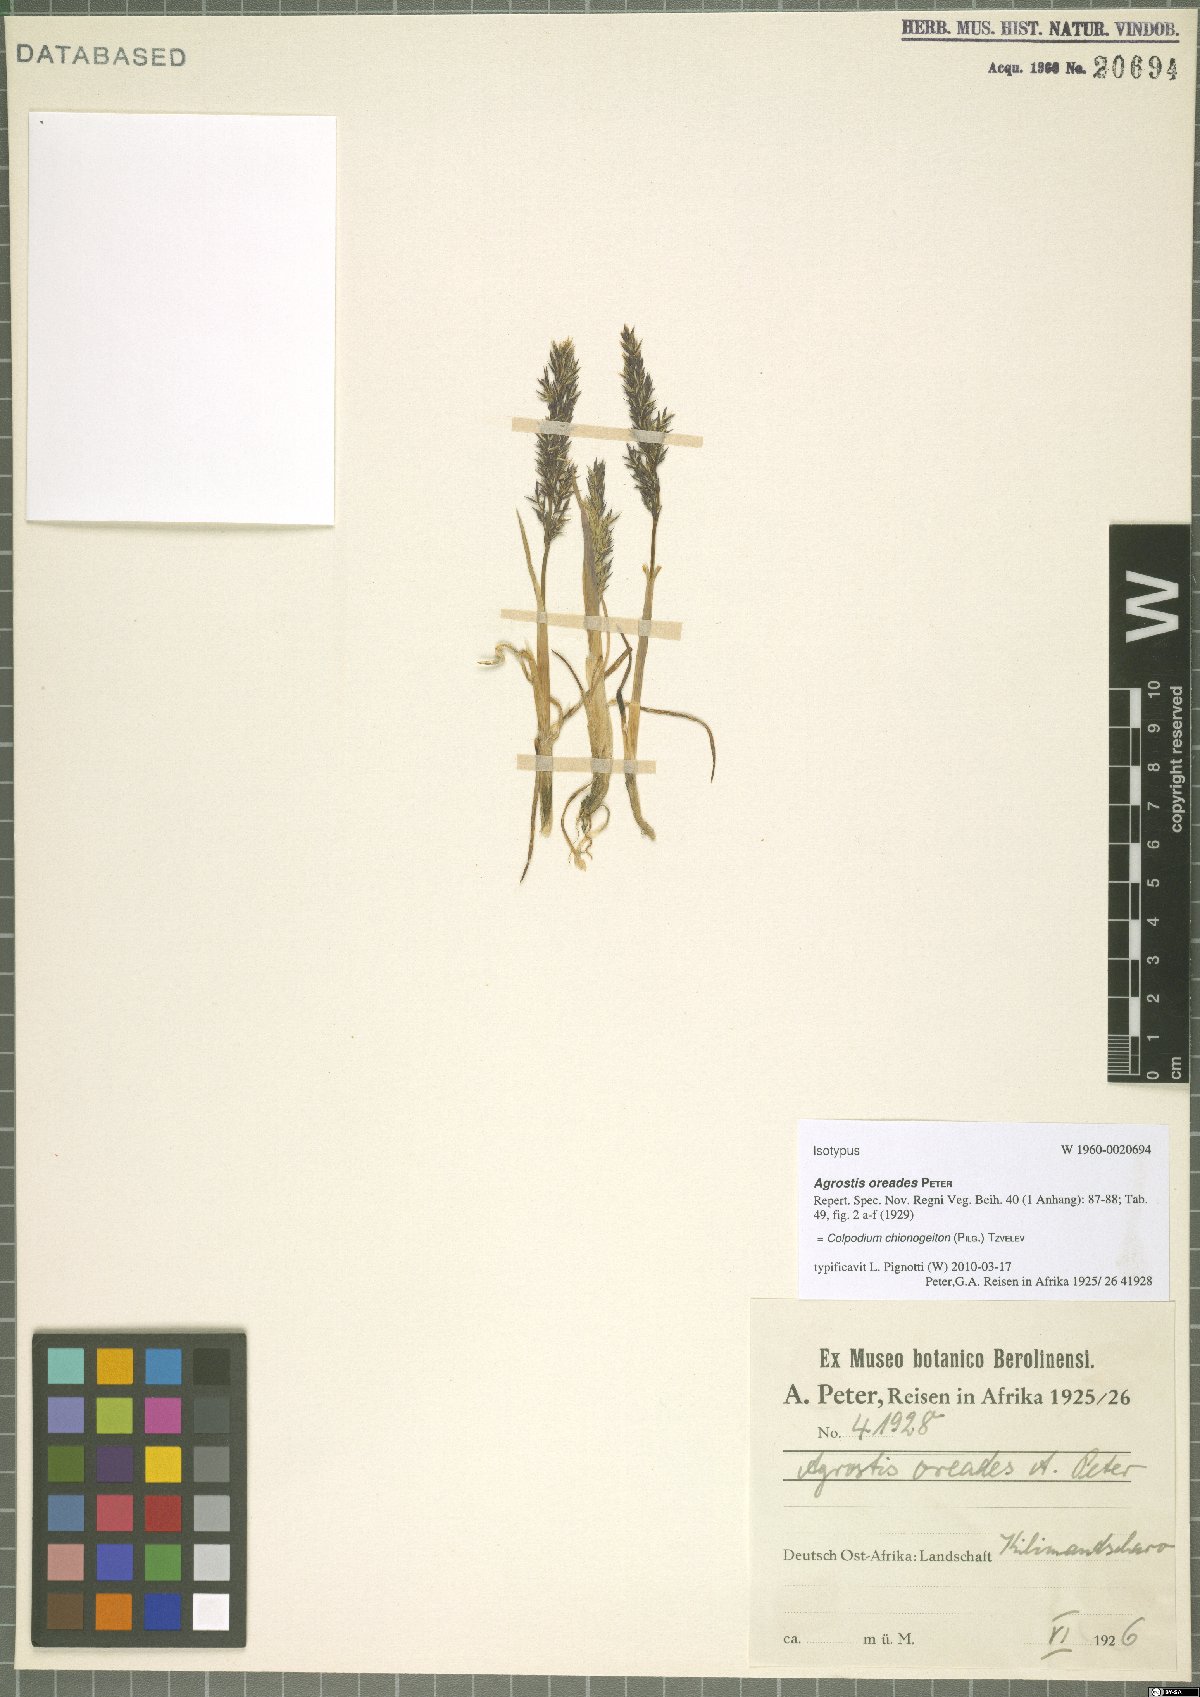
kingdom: Plantae
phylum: Tracheophyta
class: Liliopsida
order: Poales
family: Poaceae
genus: Colpodium
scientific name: Colpodium chionogeiton
